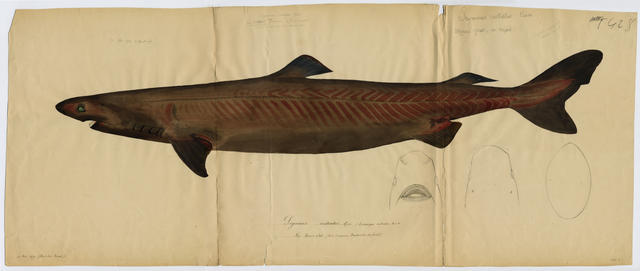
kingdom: Animalia
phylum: Chordata
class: Elasmobranchii
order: Squaliformes
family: Somniosidae
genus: Somniosus
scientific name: Somniosus rostratus
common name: Little sleeper shark
